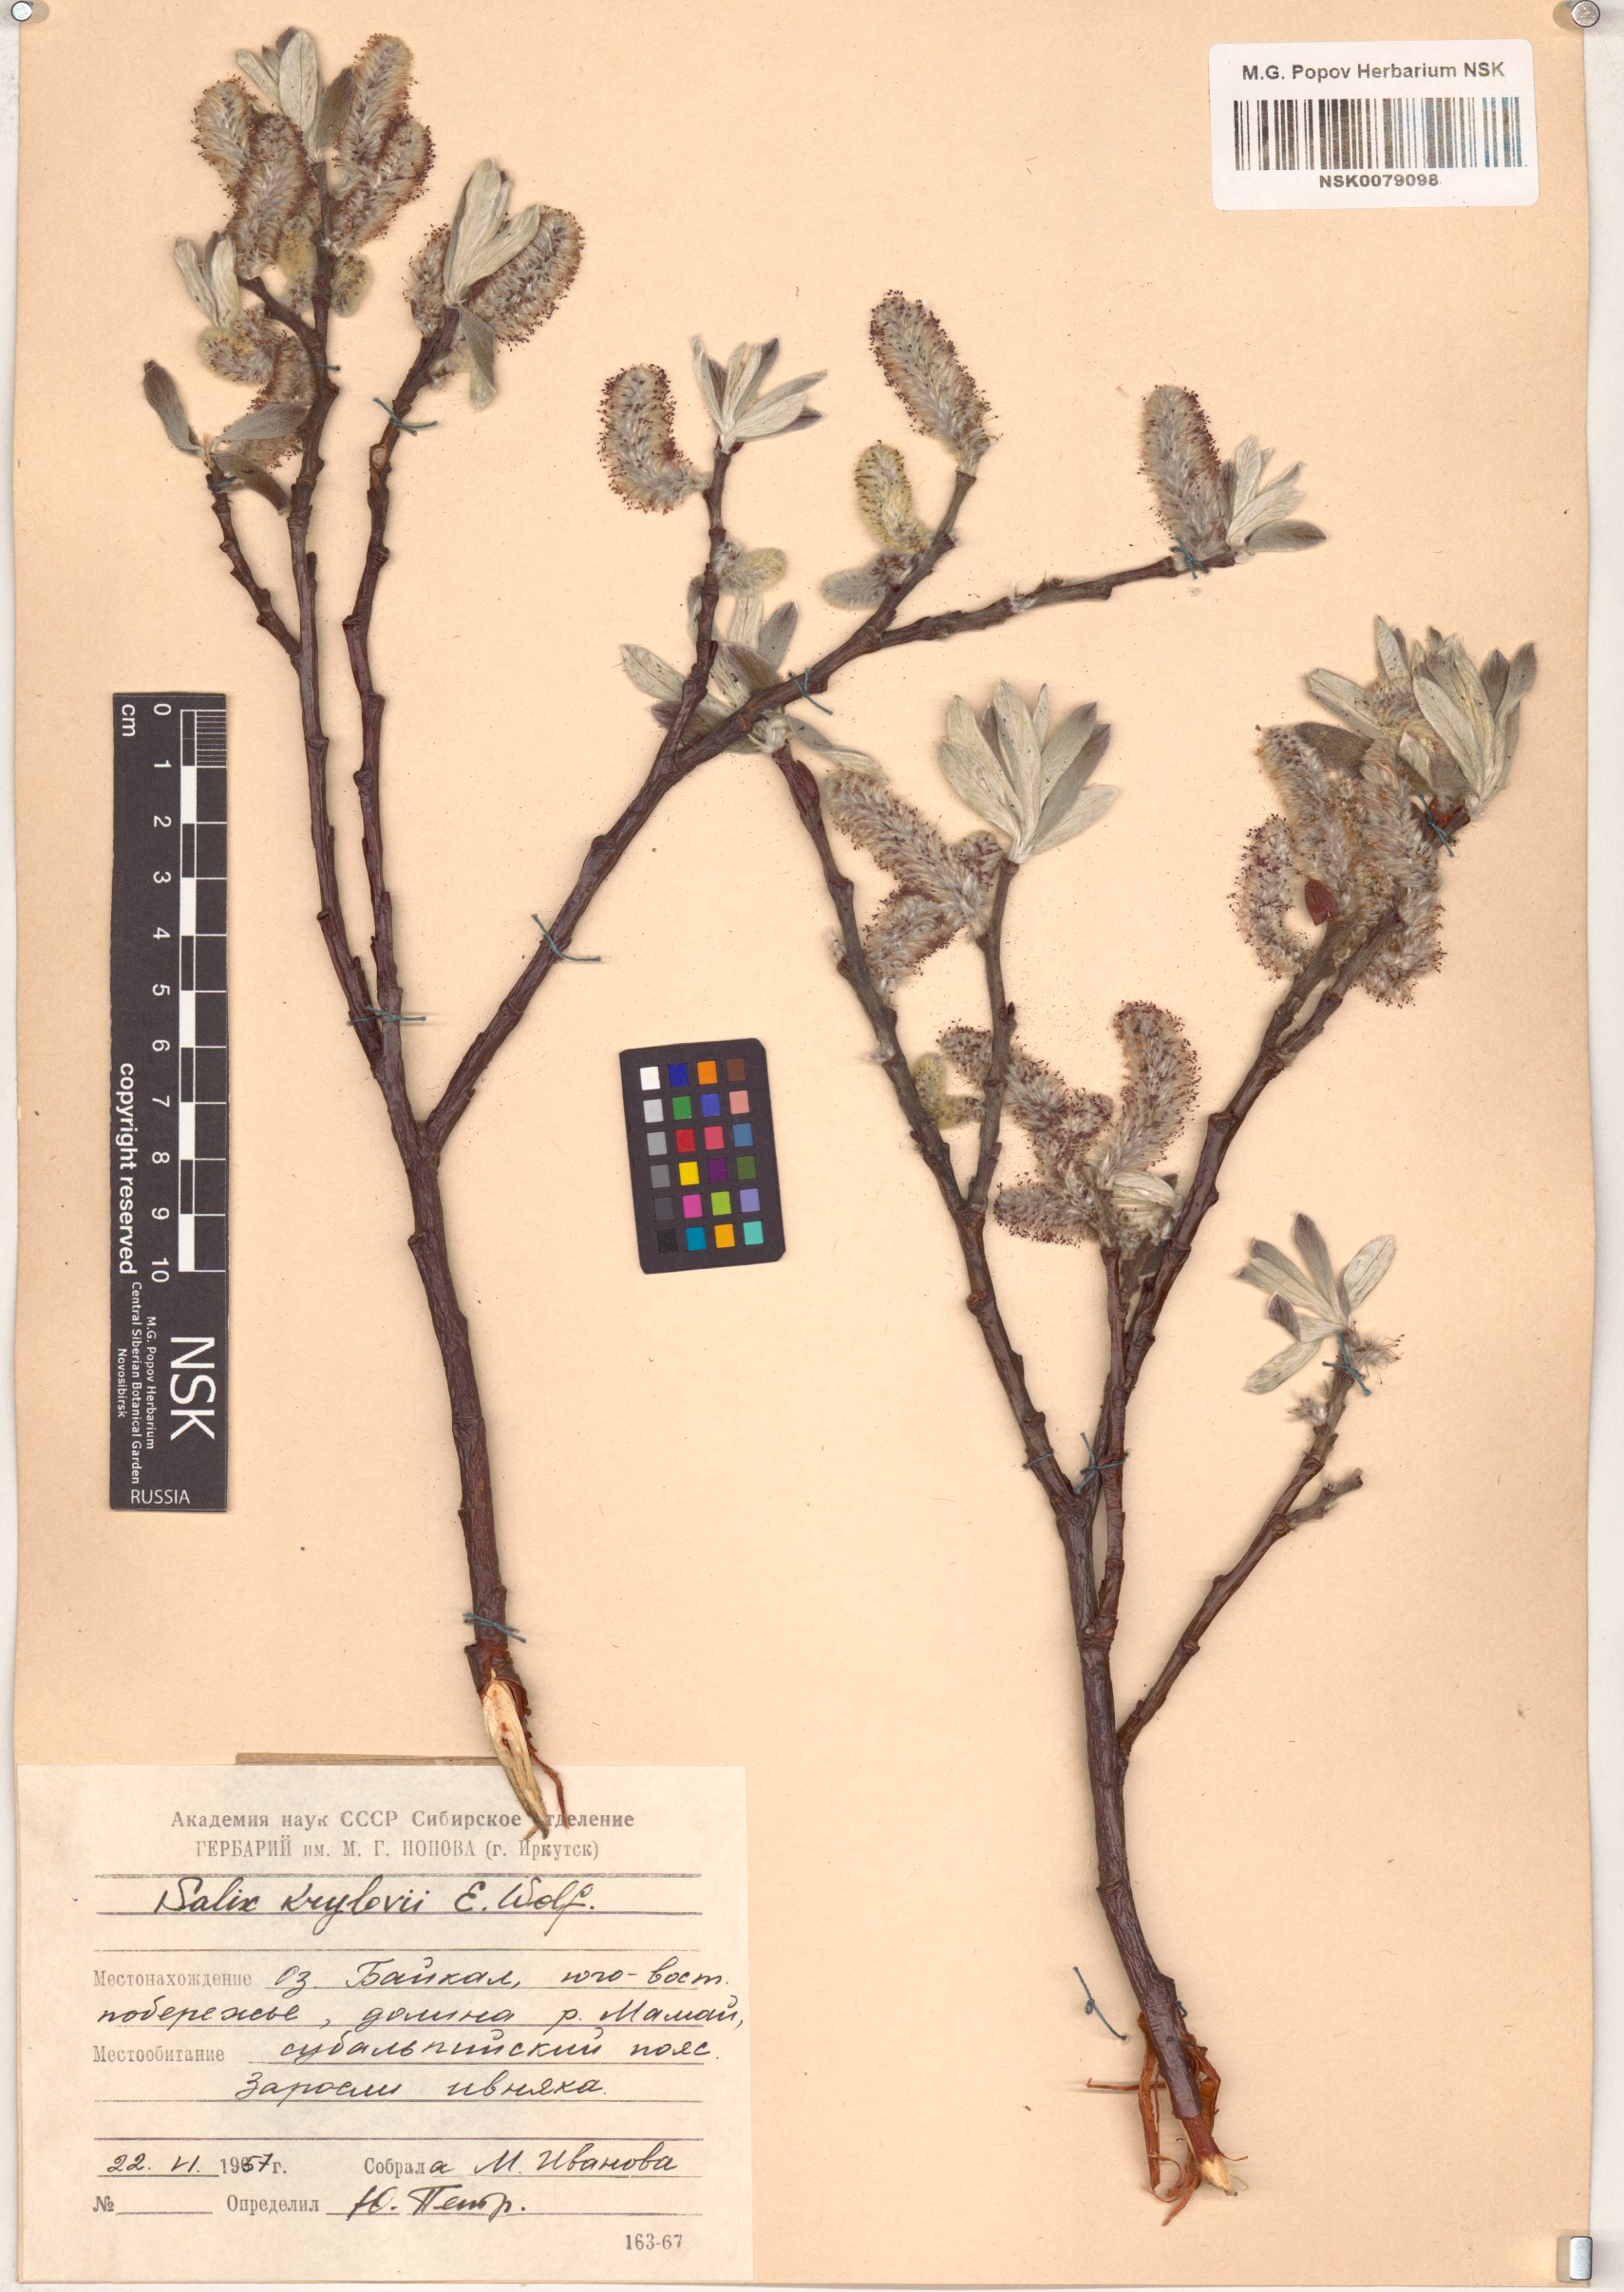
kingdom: Plantae
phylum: Tracheophyta
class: Magnoliopsida
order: Malpighiales
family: Salicaceae
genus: Salix
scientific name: Salix krylovii
